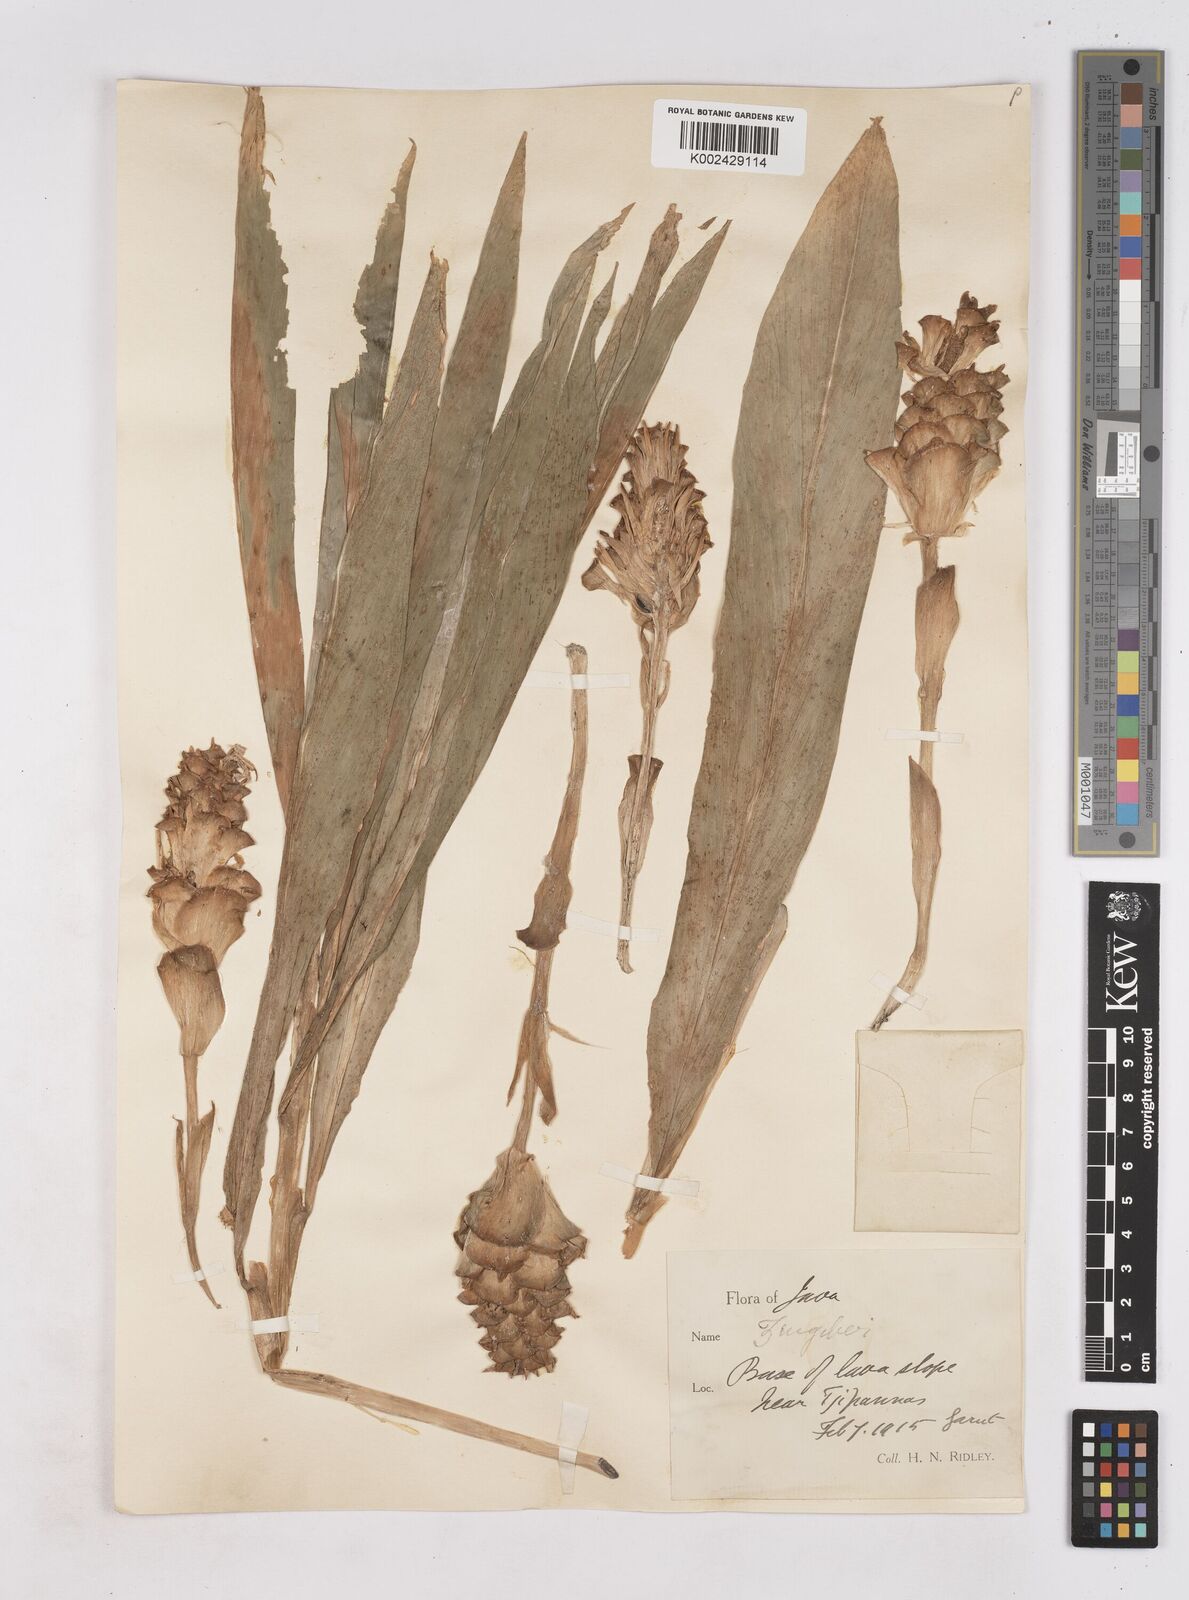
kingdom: Plantae
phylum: Tracheophyta
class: Liliopsida
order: Zingiberales
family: Zingiberaceae
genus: Zingiber
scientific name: Zingiber inflexum
